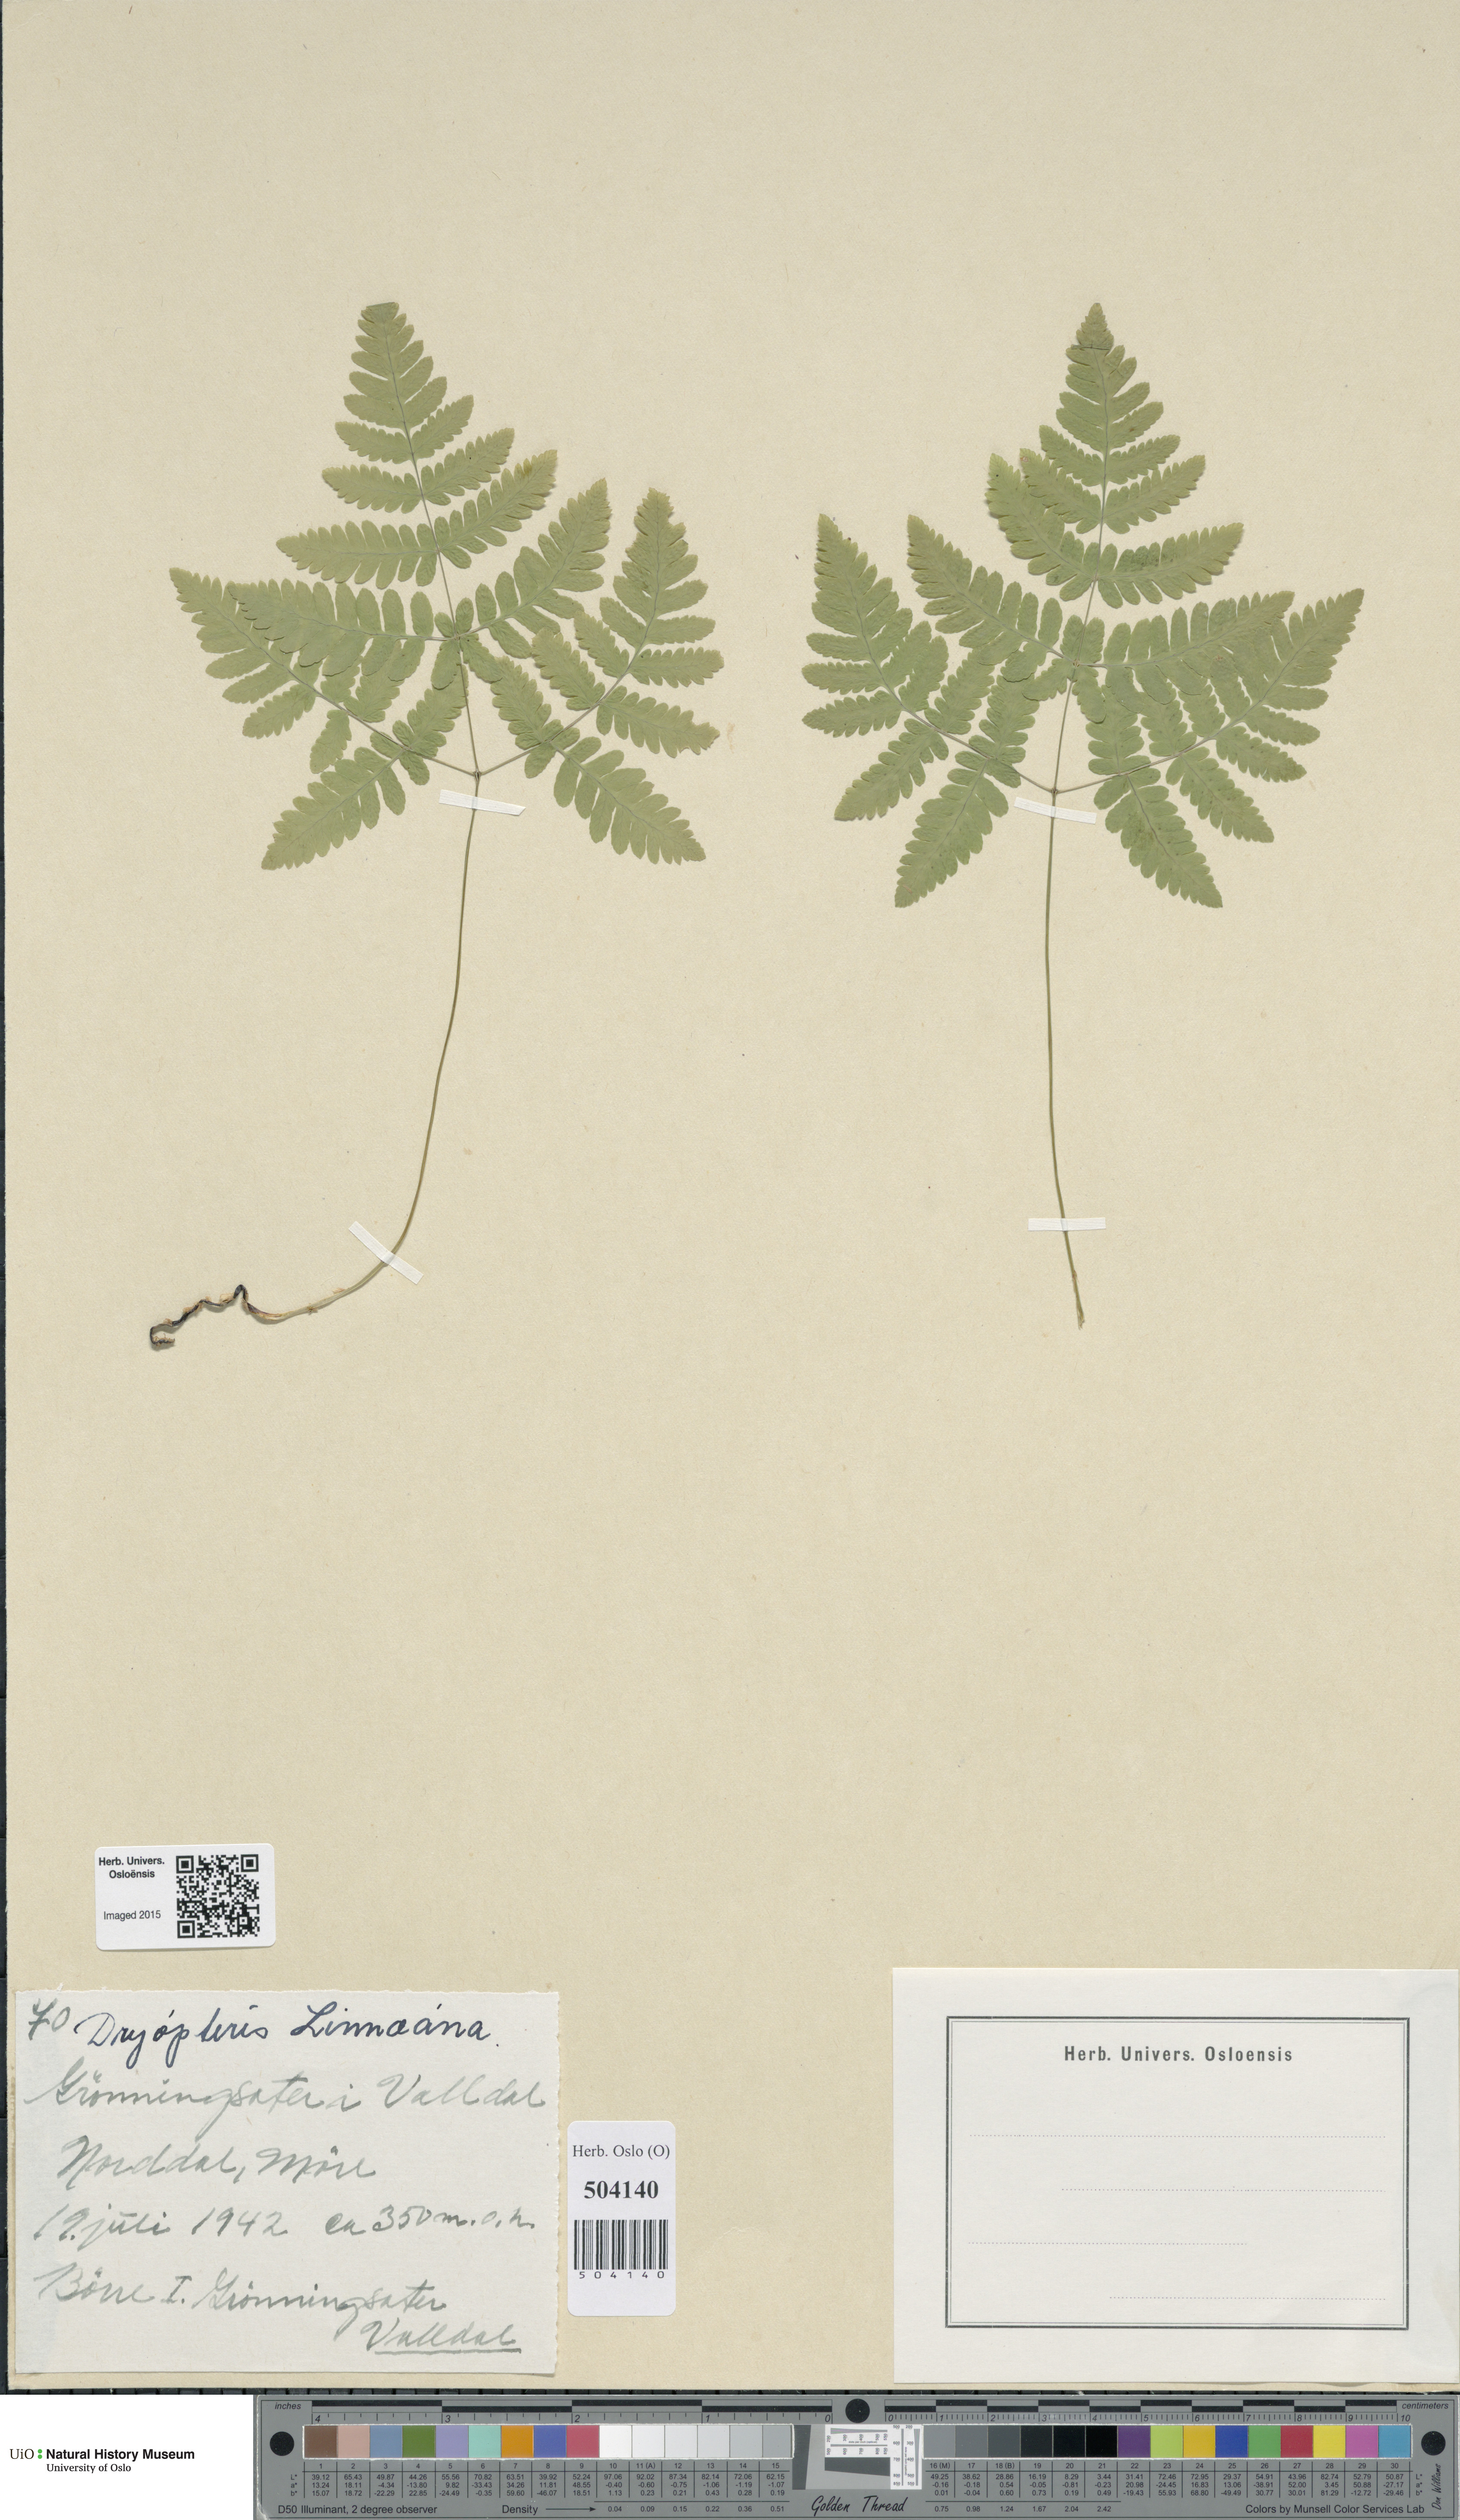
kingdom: Plantae
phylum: Tracheophyta
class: Polypodiopsida
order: Polypodiales
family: Cystopteridaceae
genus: Gymnocarpium
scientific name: Gymnocarpium dryopteris
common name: Oak fern
